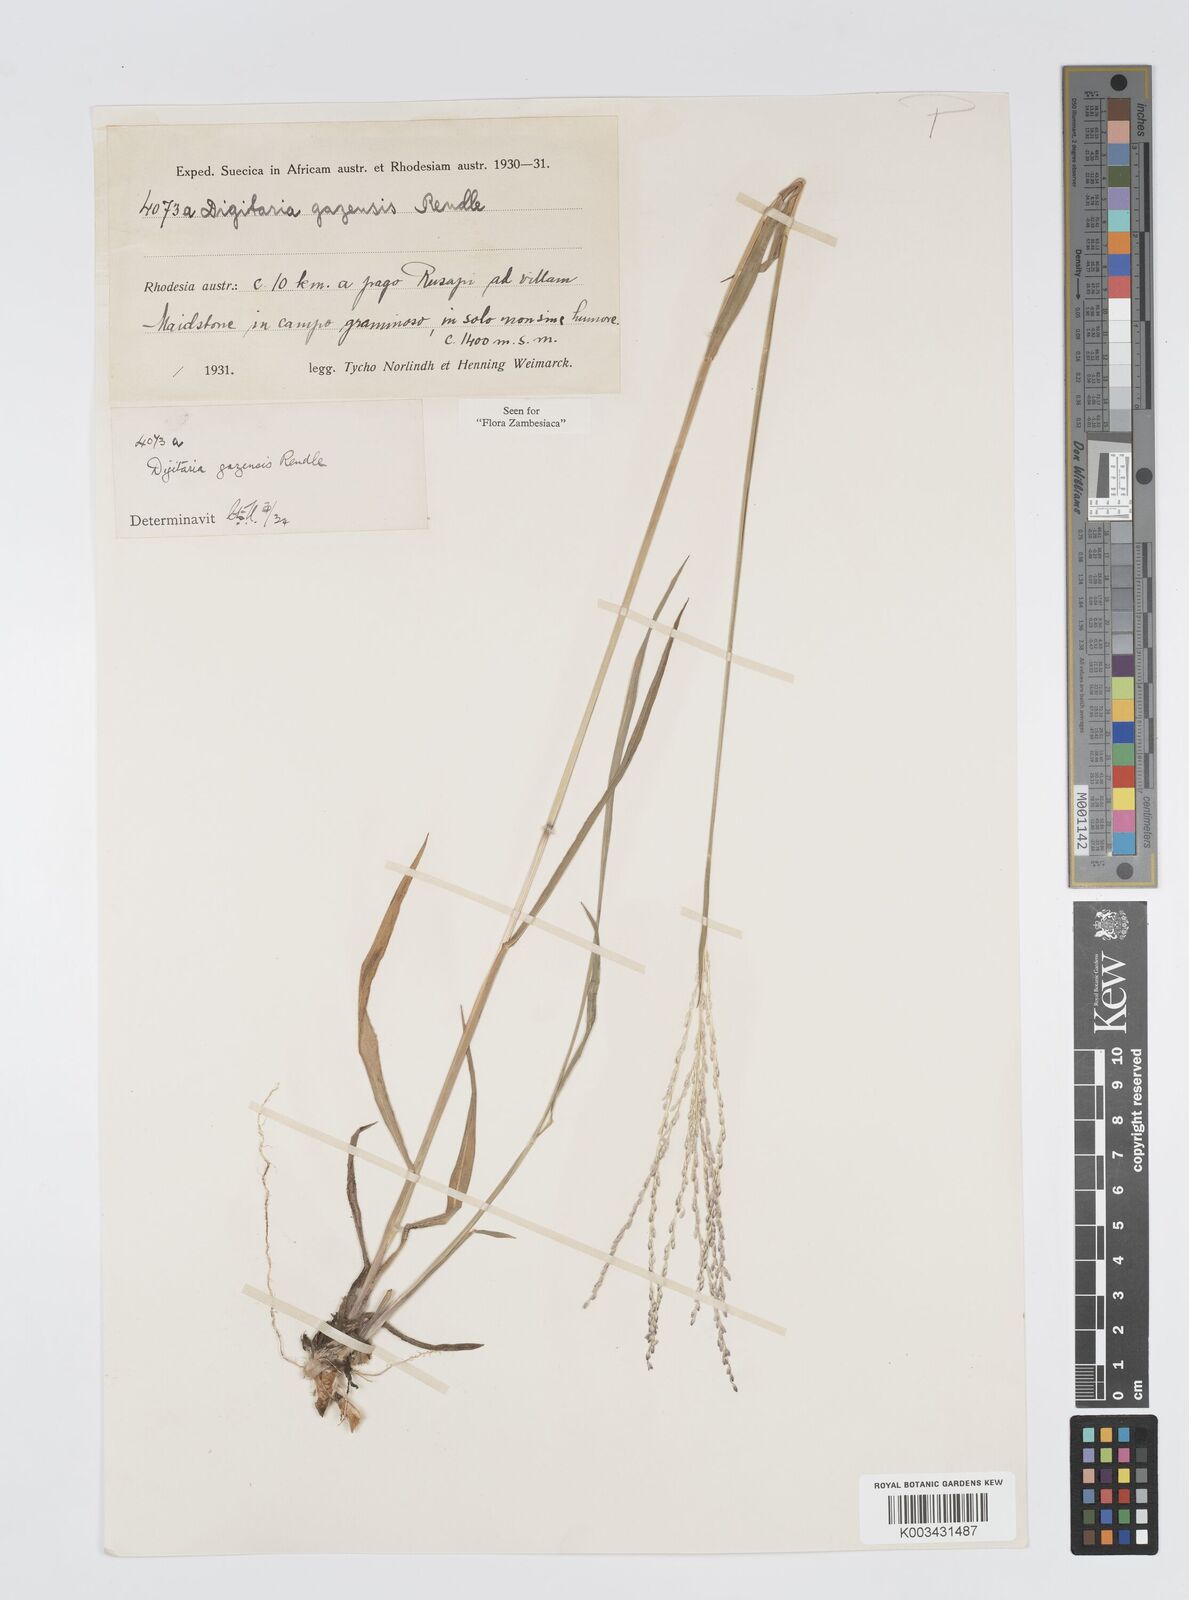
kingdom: Plantae
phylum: Tracheophyta
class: Liliopsida
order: Poales
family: Poaceae
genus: Digitaria
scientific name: Digitaria gazensis
